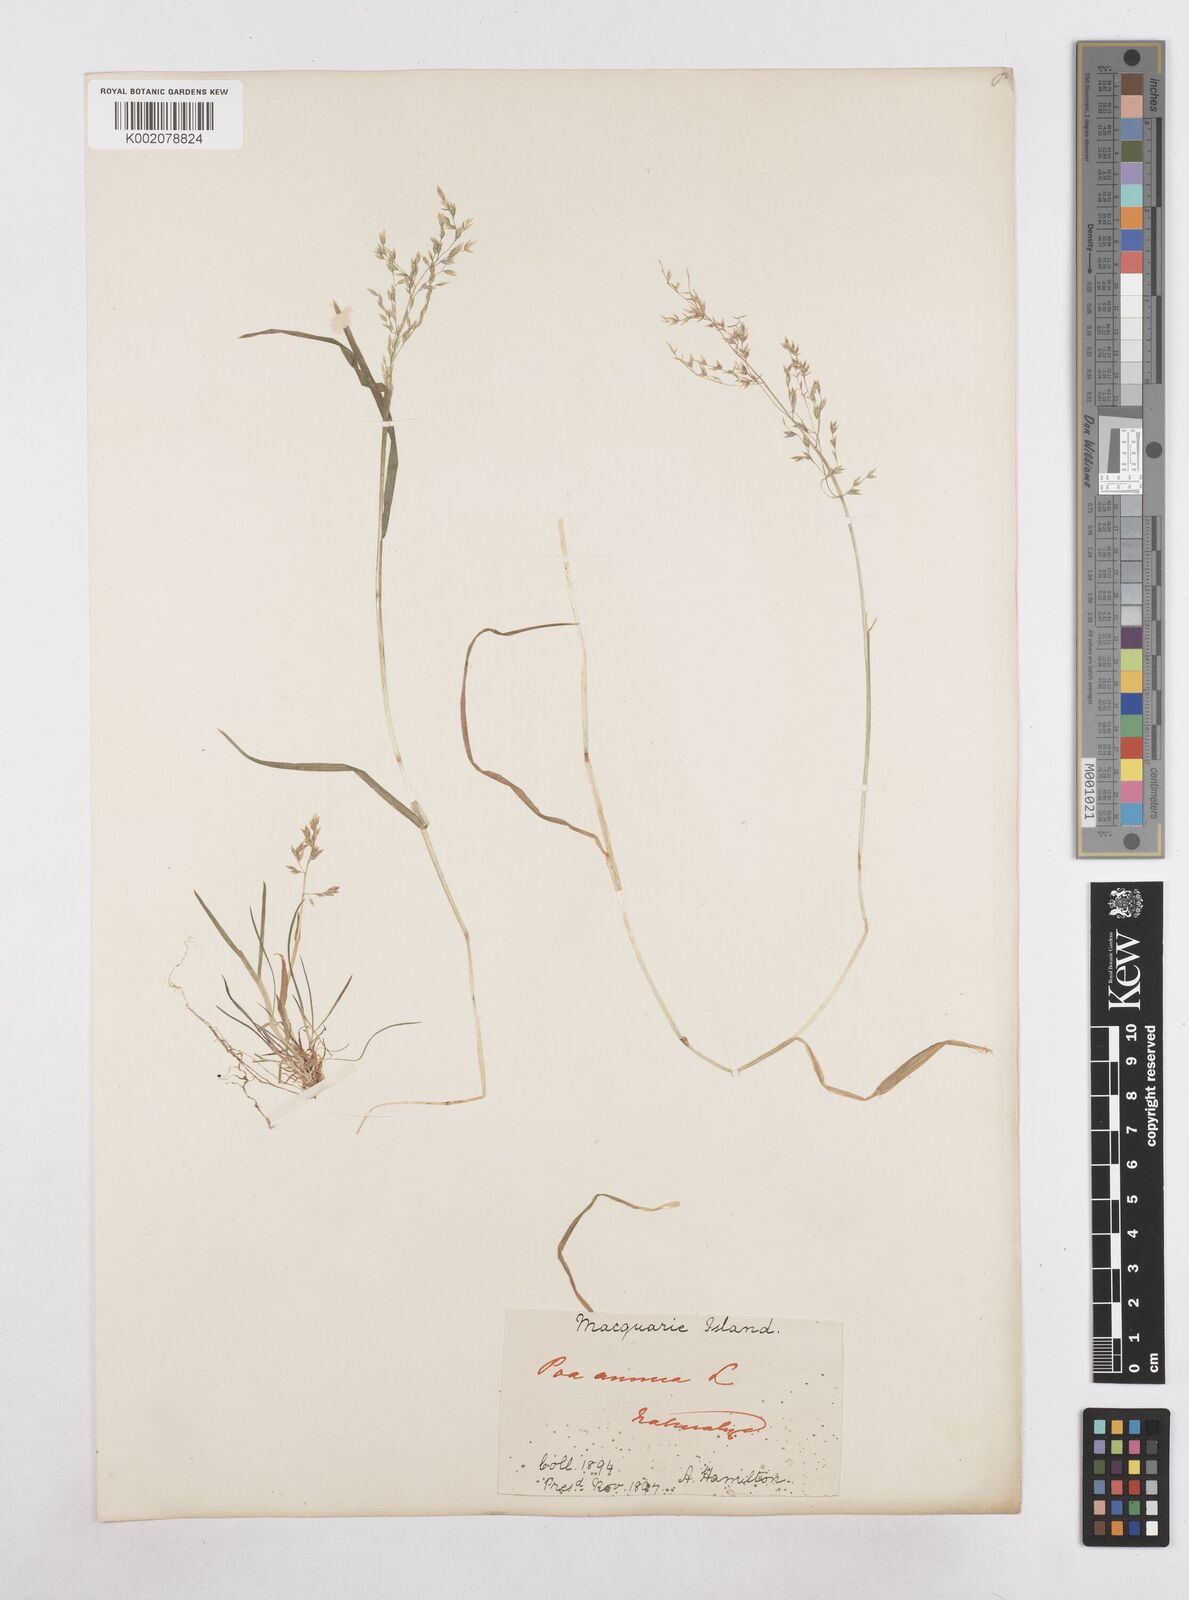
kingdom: Plantae
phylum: Tracheophyta
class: Liliopsida
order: Poales
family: Poaceae
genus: Poa
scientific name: Poa annua
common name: Annual bluegrass
